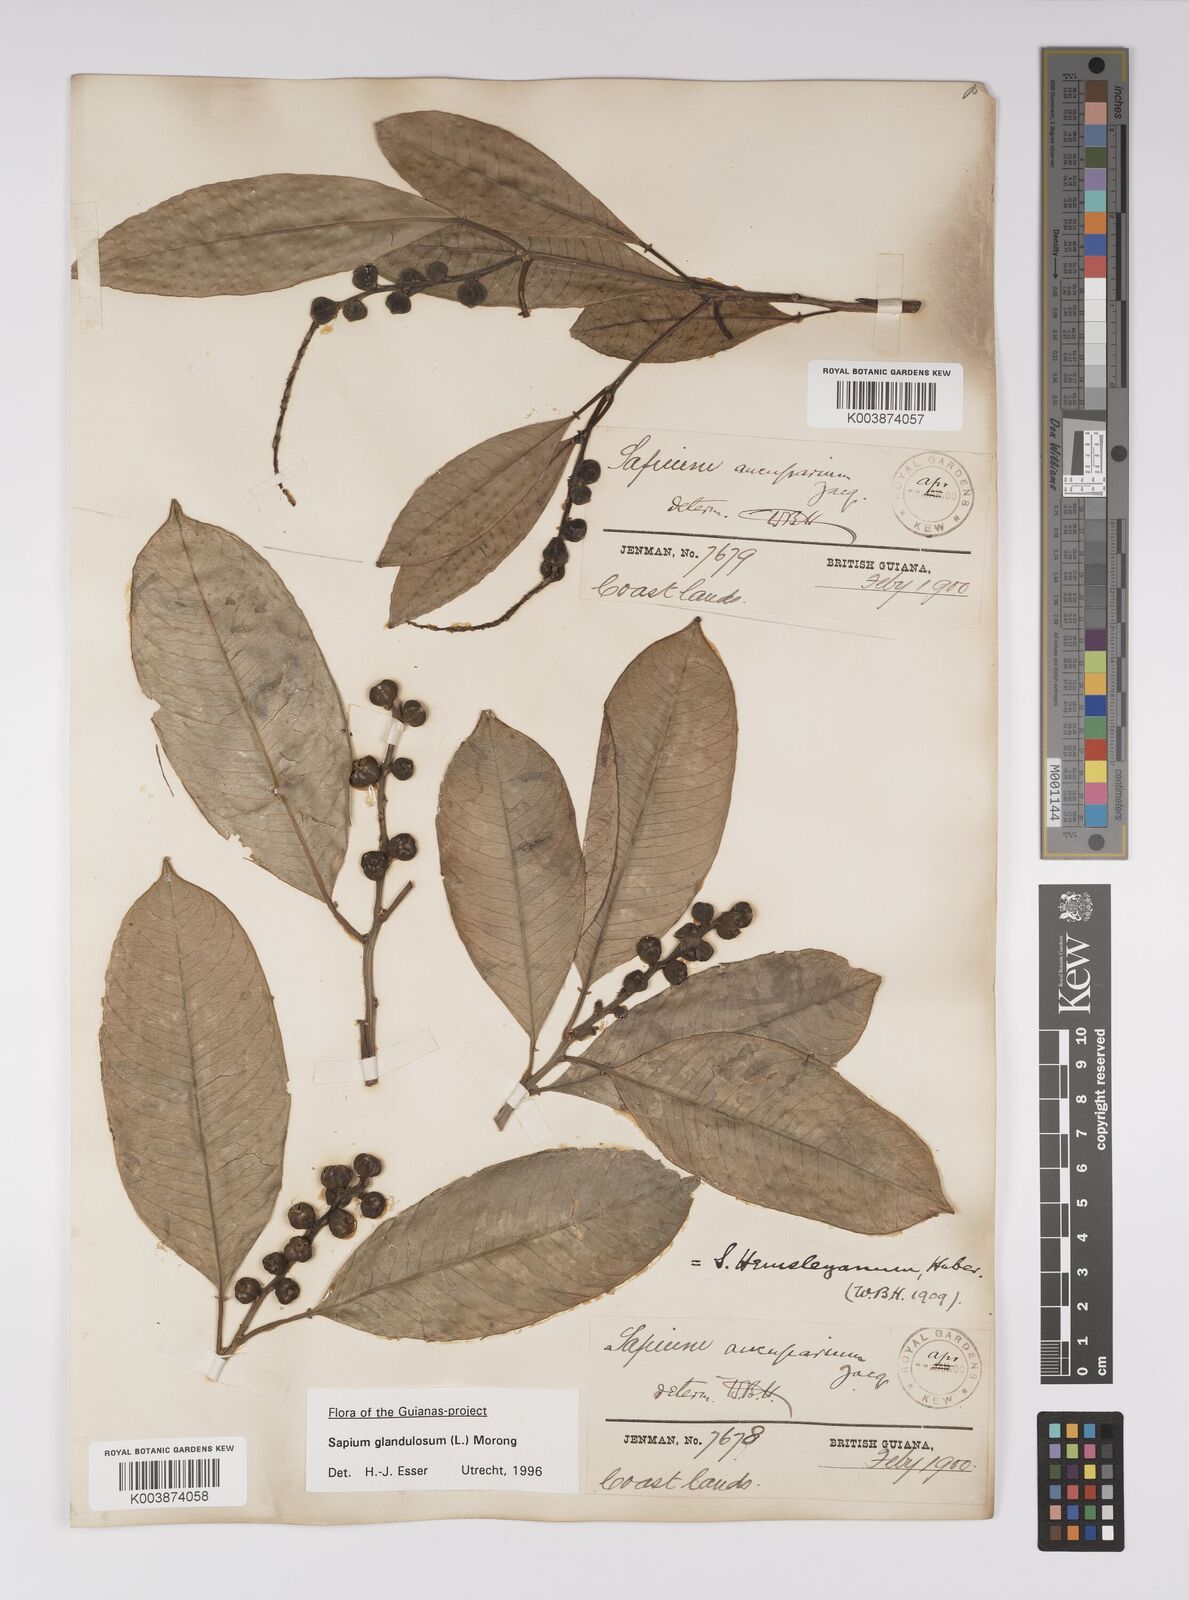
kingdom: Plantae
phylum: Tracheophyta
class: Magnoliopsida
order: Malpighiales
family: Euphorbiaceae
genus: Sapium
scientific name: Sapium glandulosum
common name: Milktree
